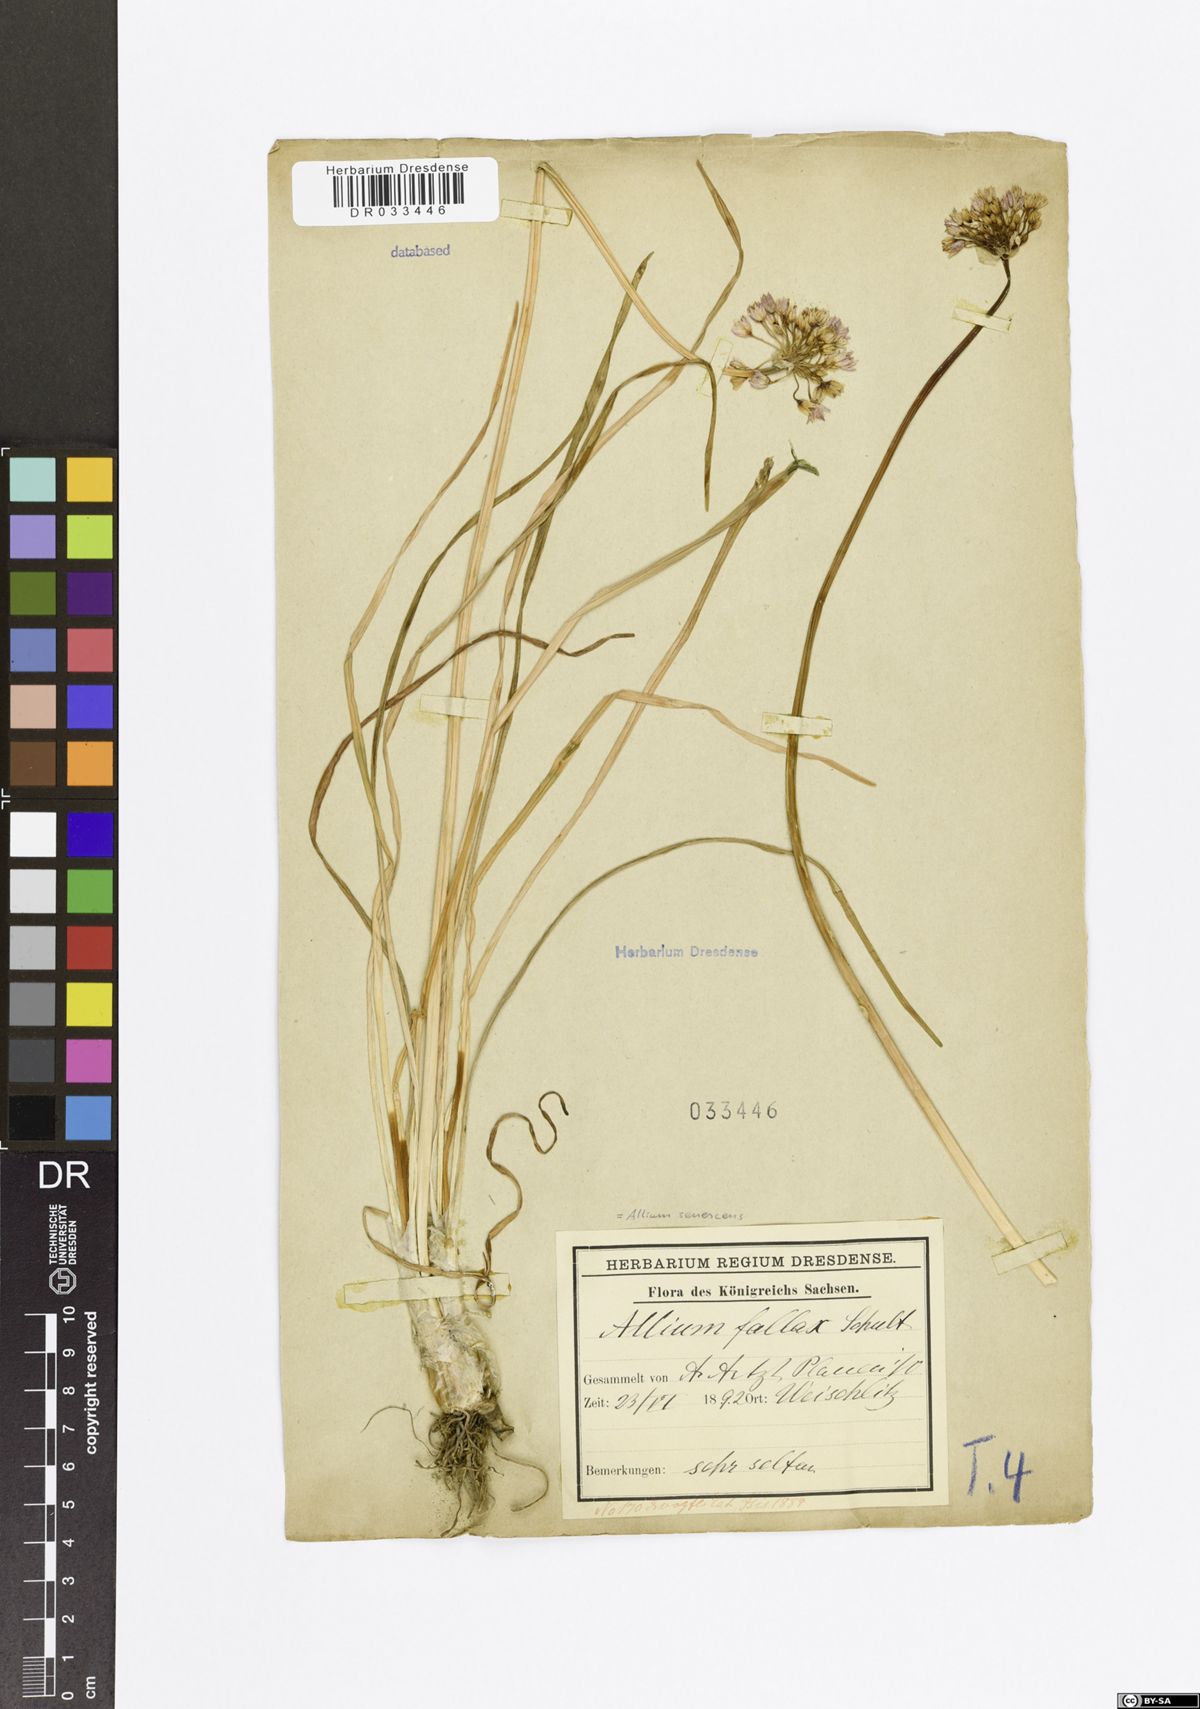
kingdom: Plantae
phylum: Tracheophyta
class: Liliopsida
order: Asparagales
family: Amaryllidaceae
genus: Allium
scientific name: Allium senescens
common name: German garlic
